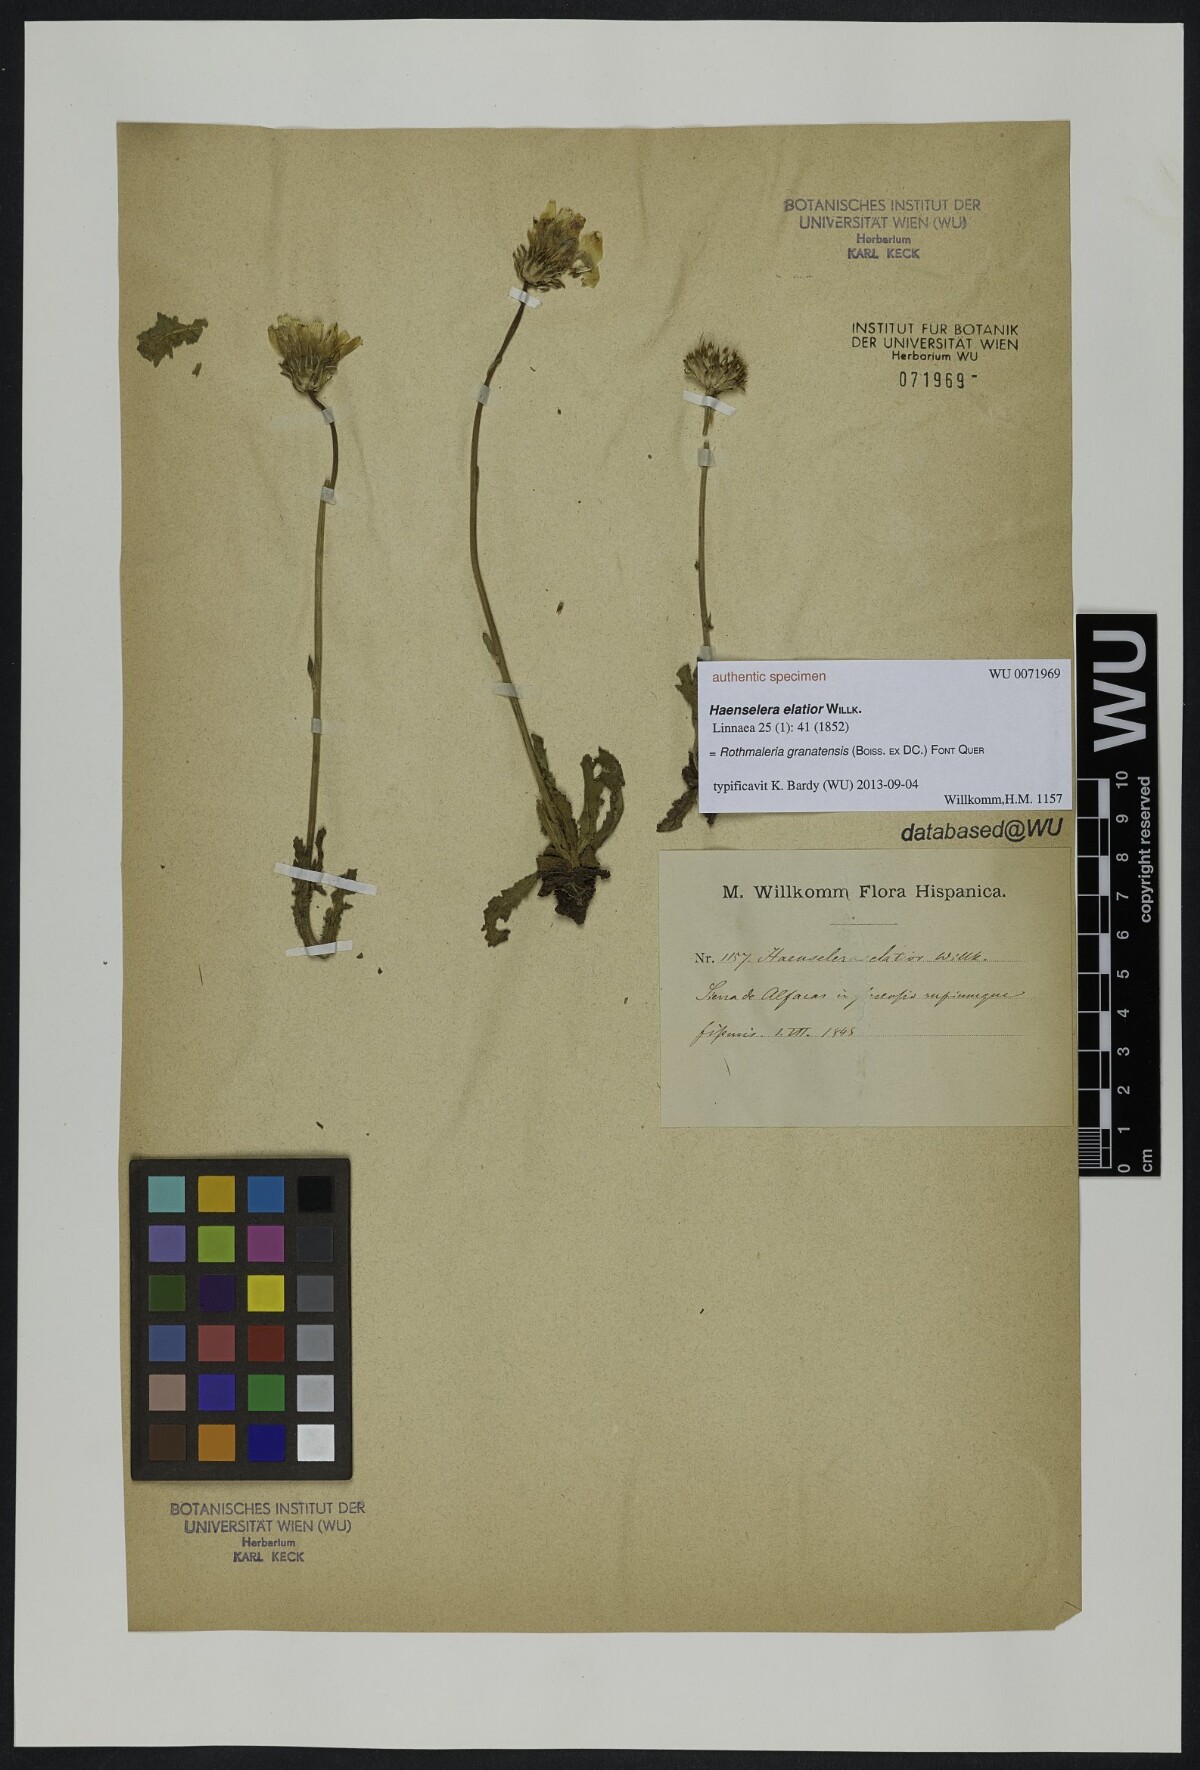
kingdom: Plantae
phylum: Tracheophyta
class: Magnoliopsida
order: Asterales
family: Asteraceae
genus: Rothmaleria
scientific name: Rothmaleria granatensis
